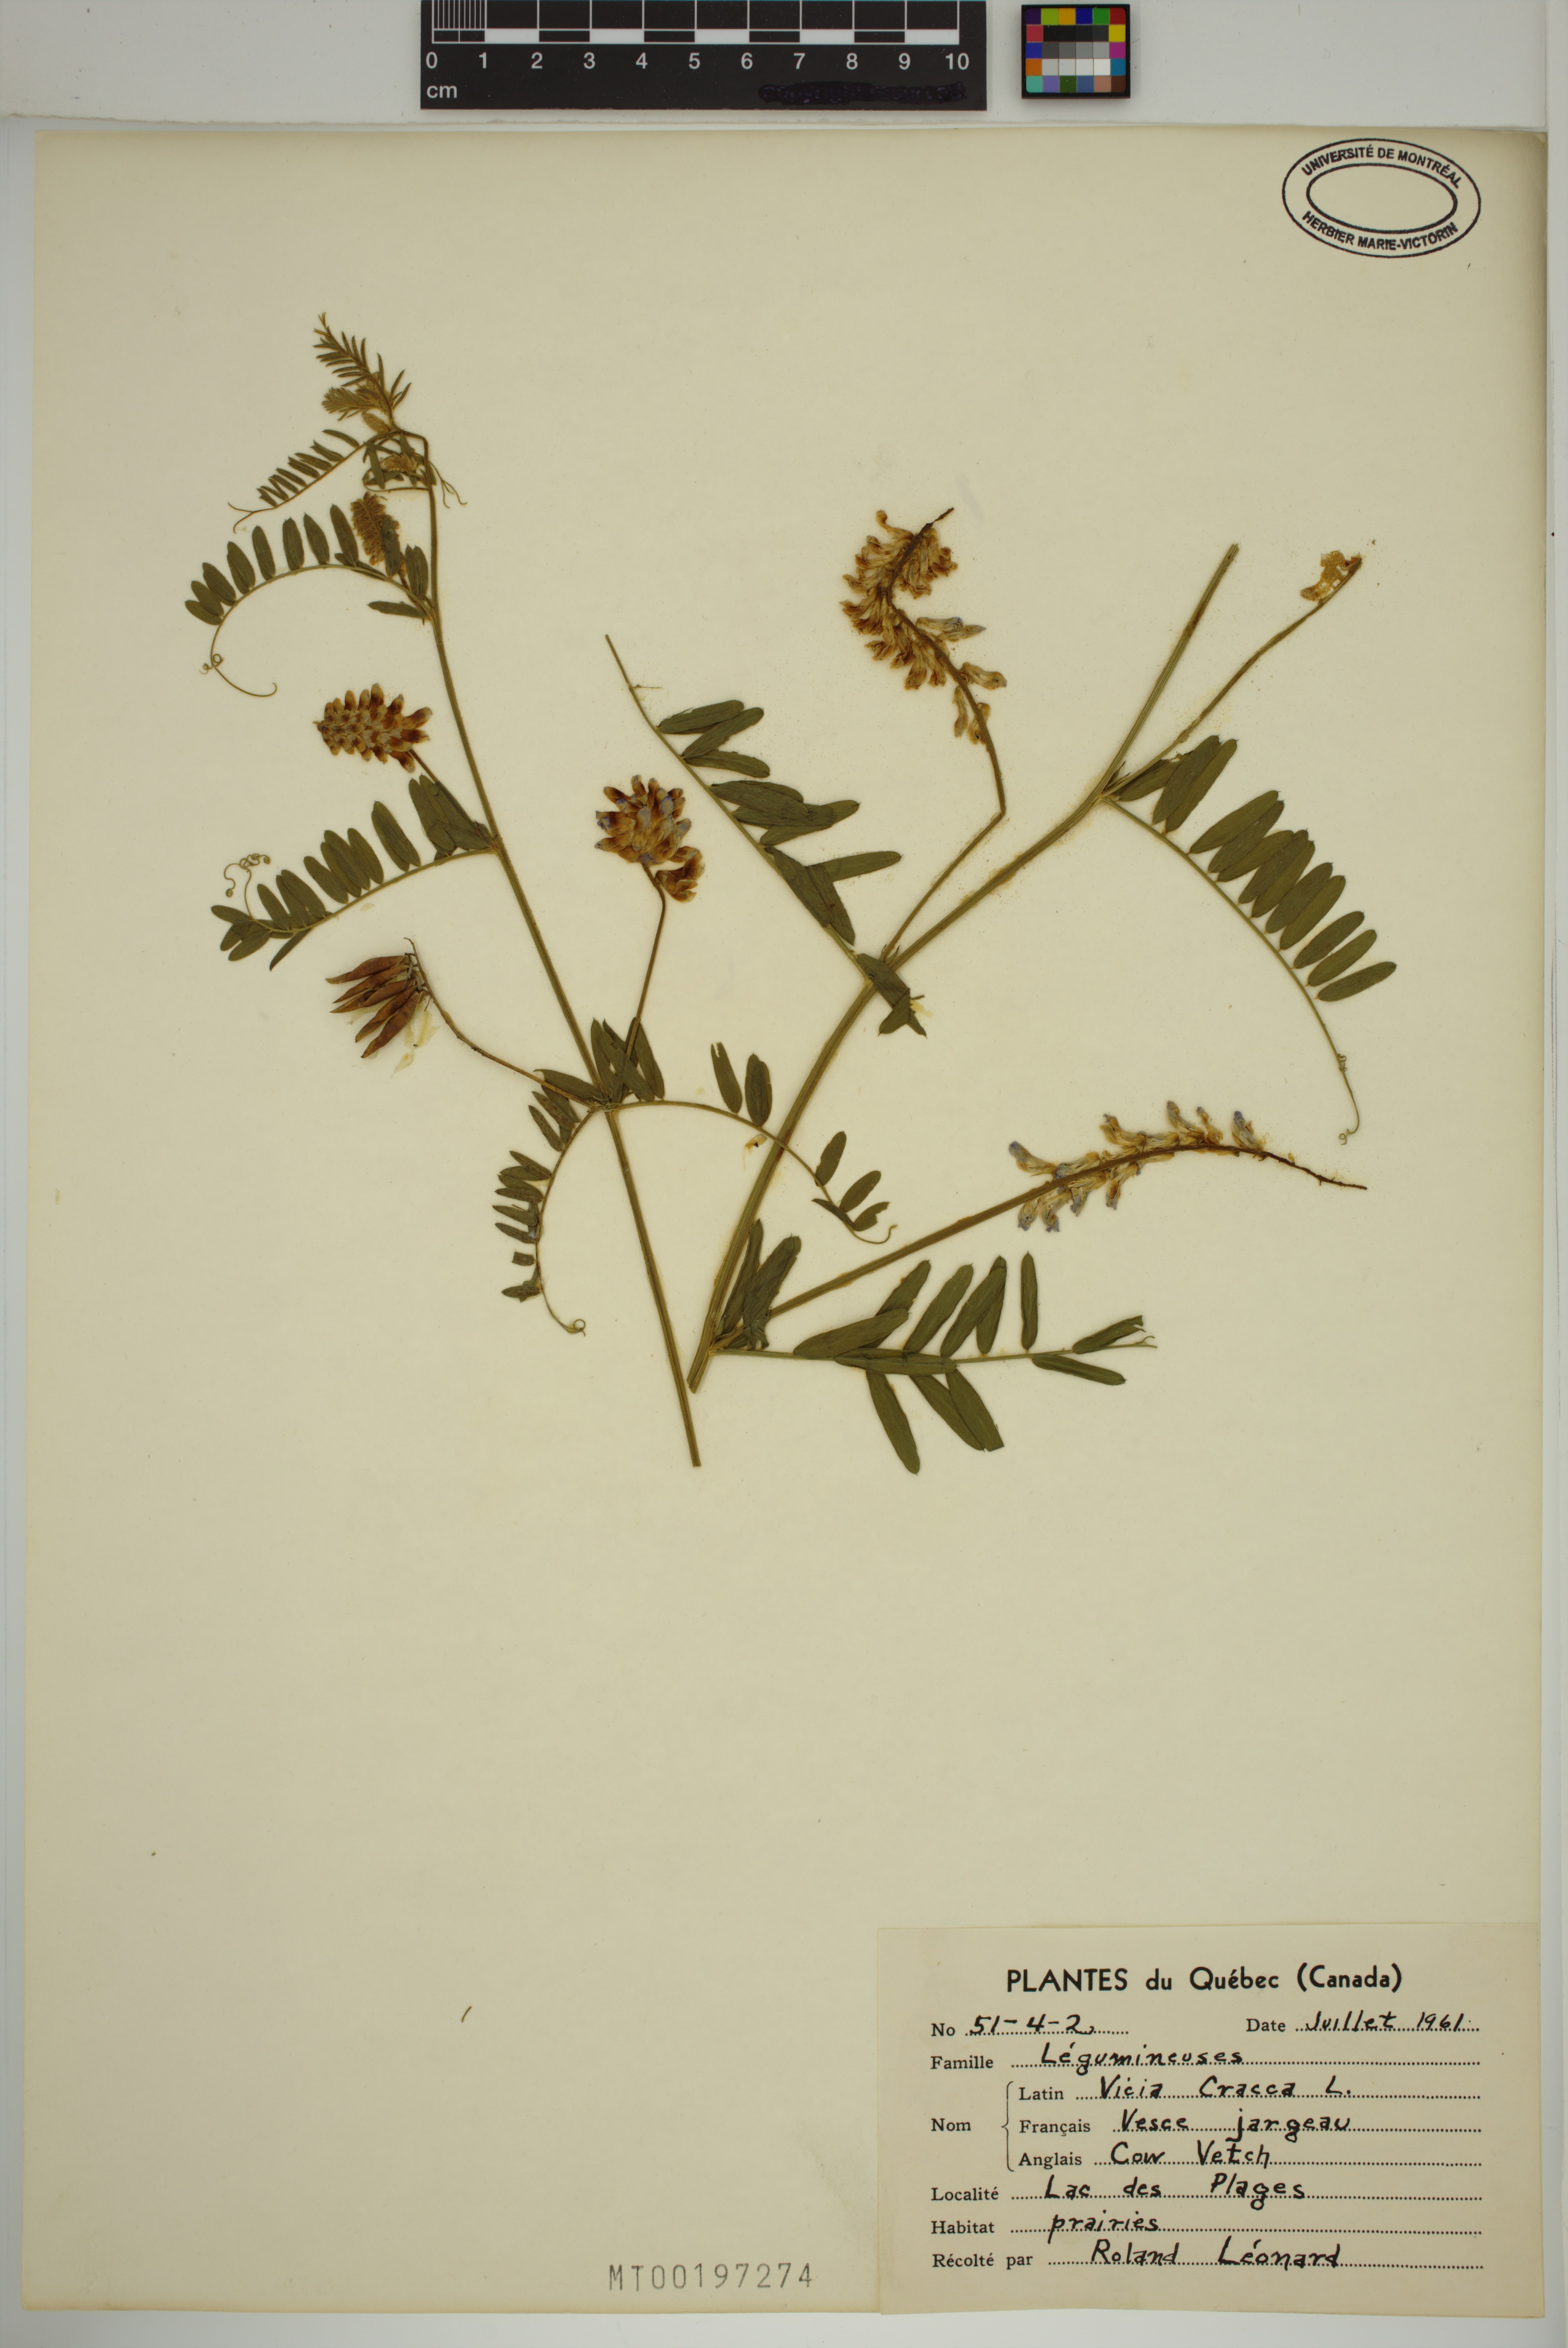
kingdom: Plantae
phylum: Tracheophyta
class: Magnoliopsida
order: Fabales
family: Fabaceae
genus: Vicia
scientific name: Vicia cracca
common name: Bird vetch
